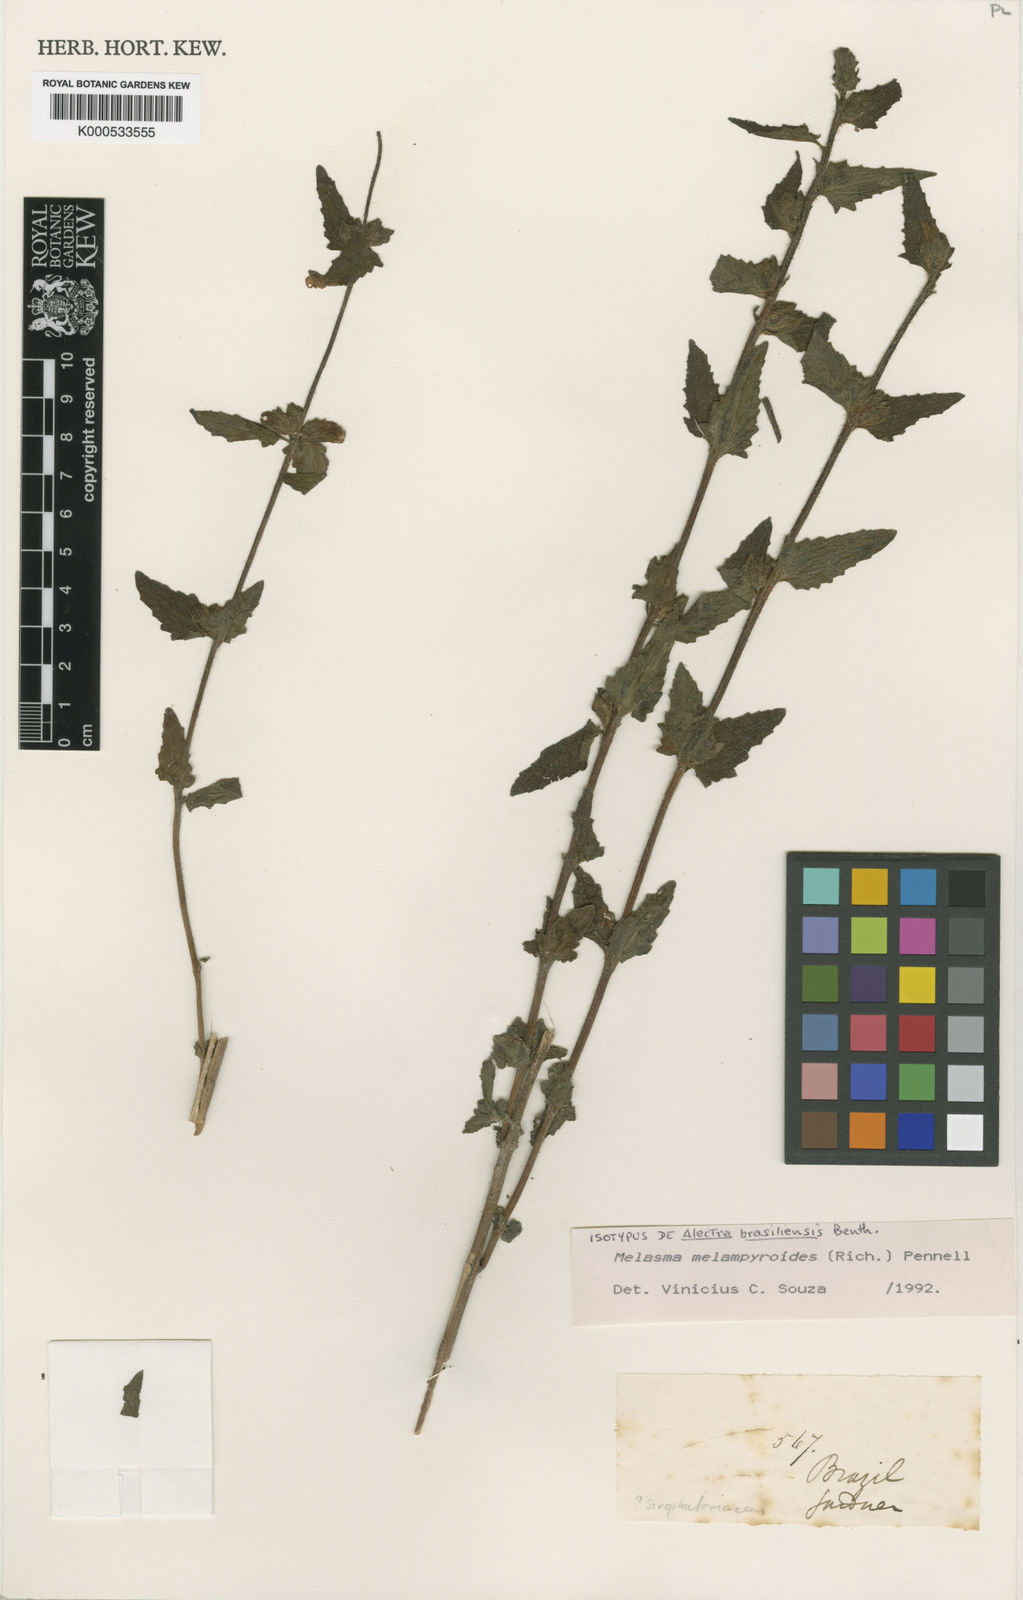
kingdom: Plantae
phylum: Tracheophyta
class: Magnoliopsida
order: Lamiales
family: Orobanchaceae
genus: Alectra
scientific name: Alectra sessiliflora
